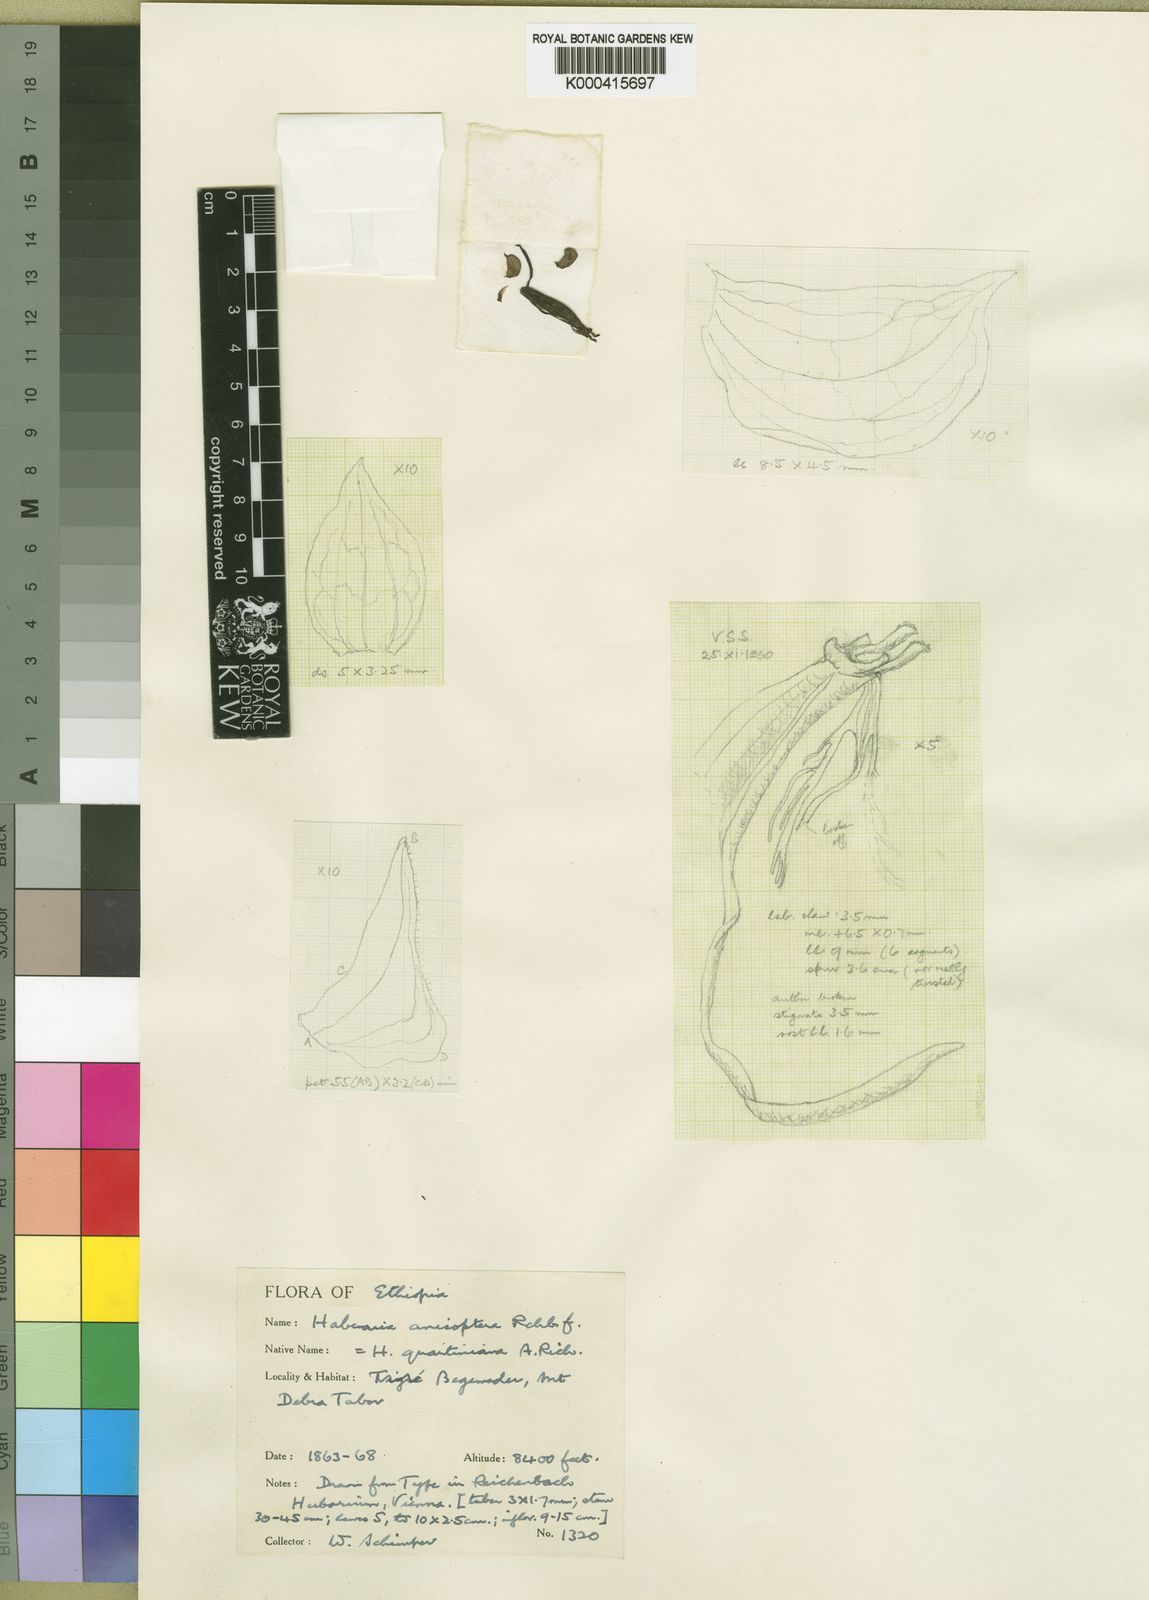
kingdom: Plantae
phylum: Tracheophyta
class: Liliopsida
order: Asparagales
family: Orchidaceae
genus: Habenaria
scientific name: Habenaria quartiniana
